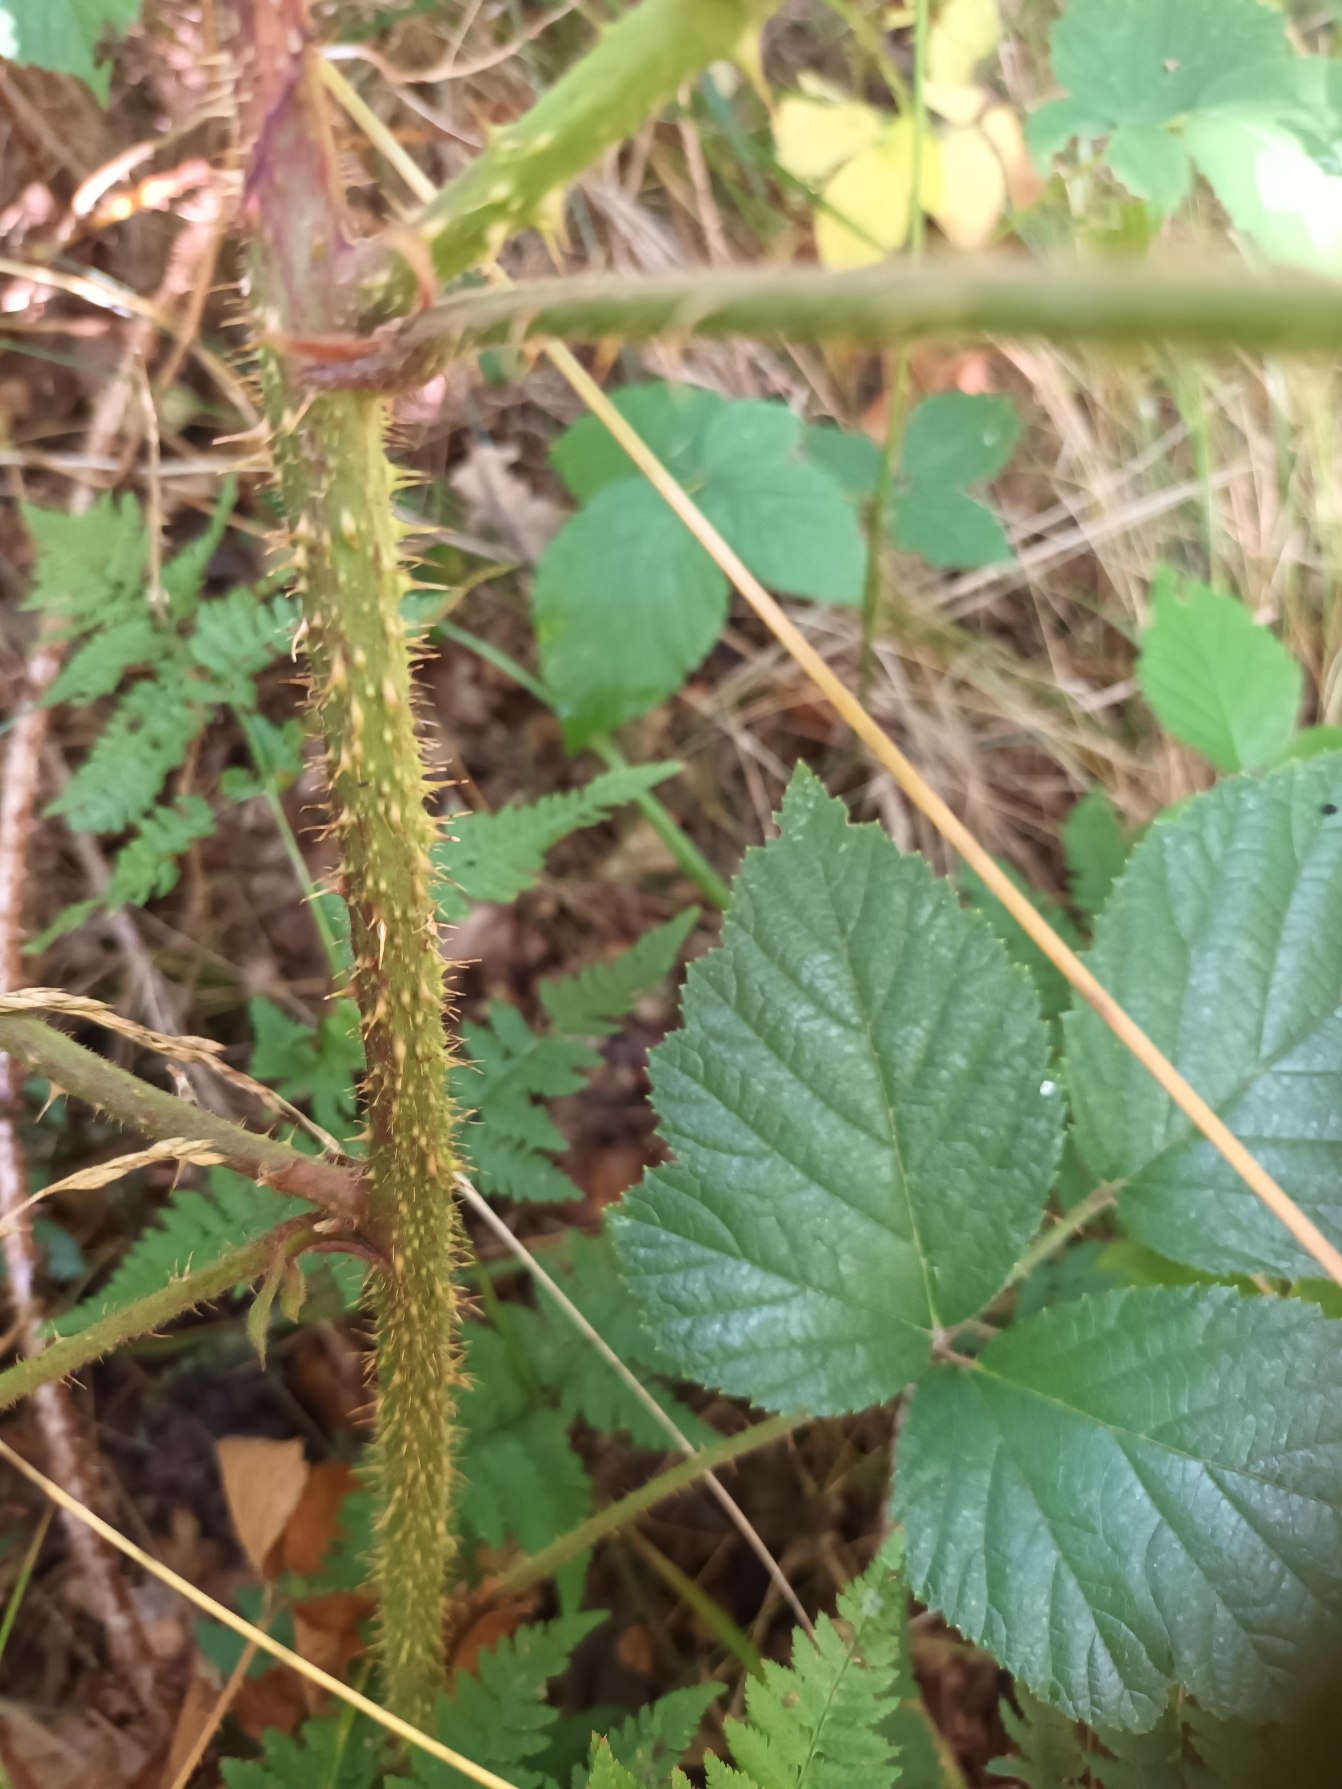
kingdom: Plantae
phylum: Tracheophyta
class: Magnoliopsida
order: Rosales
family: Rosaceae
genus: Rubus
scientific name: Rubus koehleri
